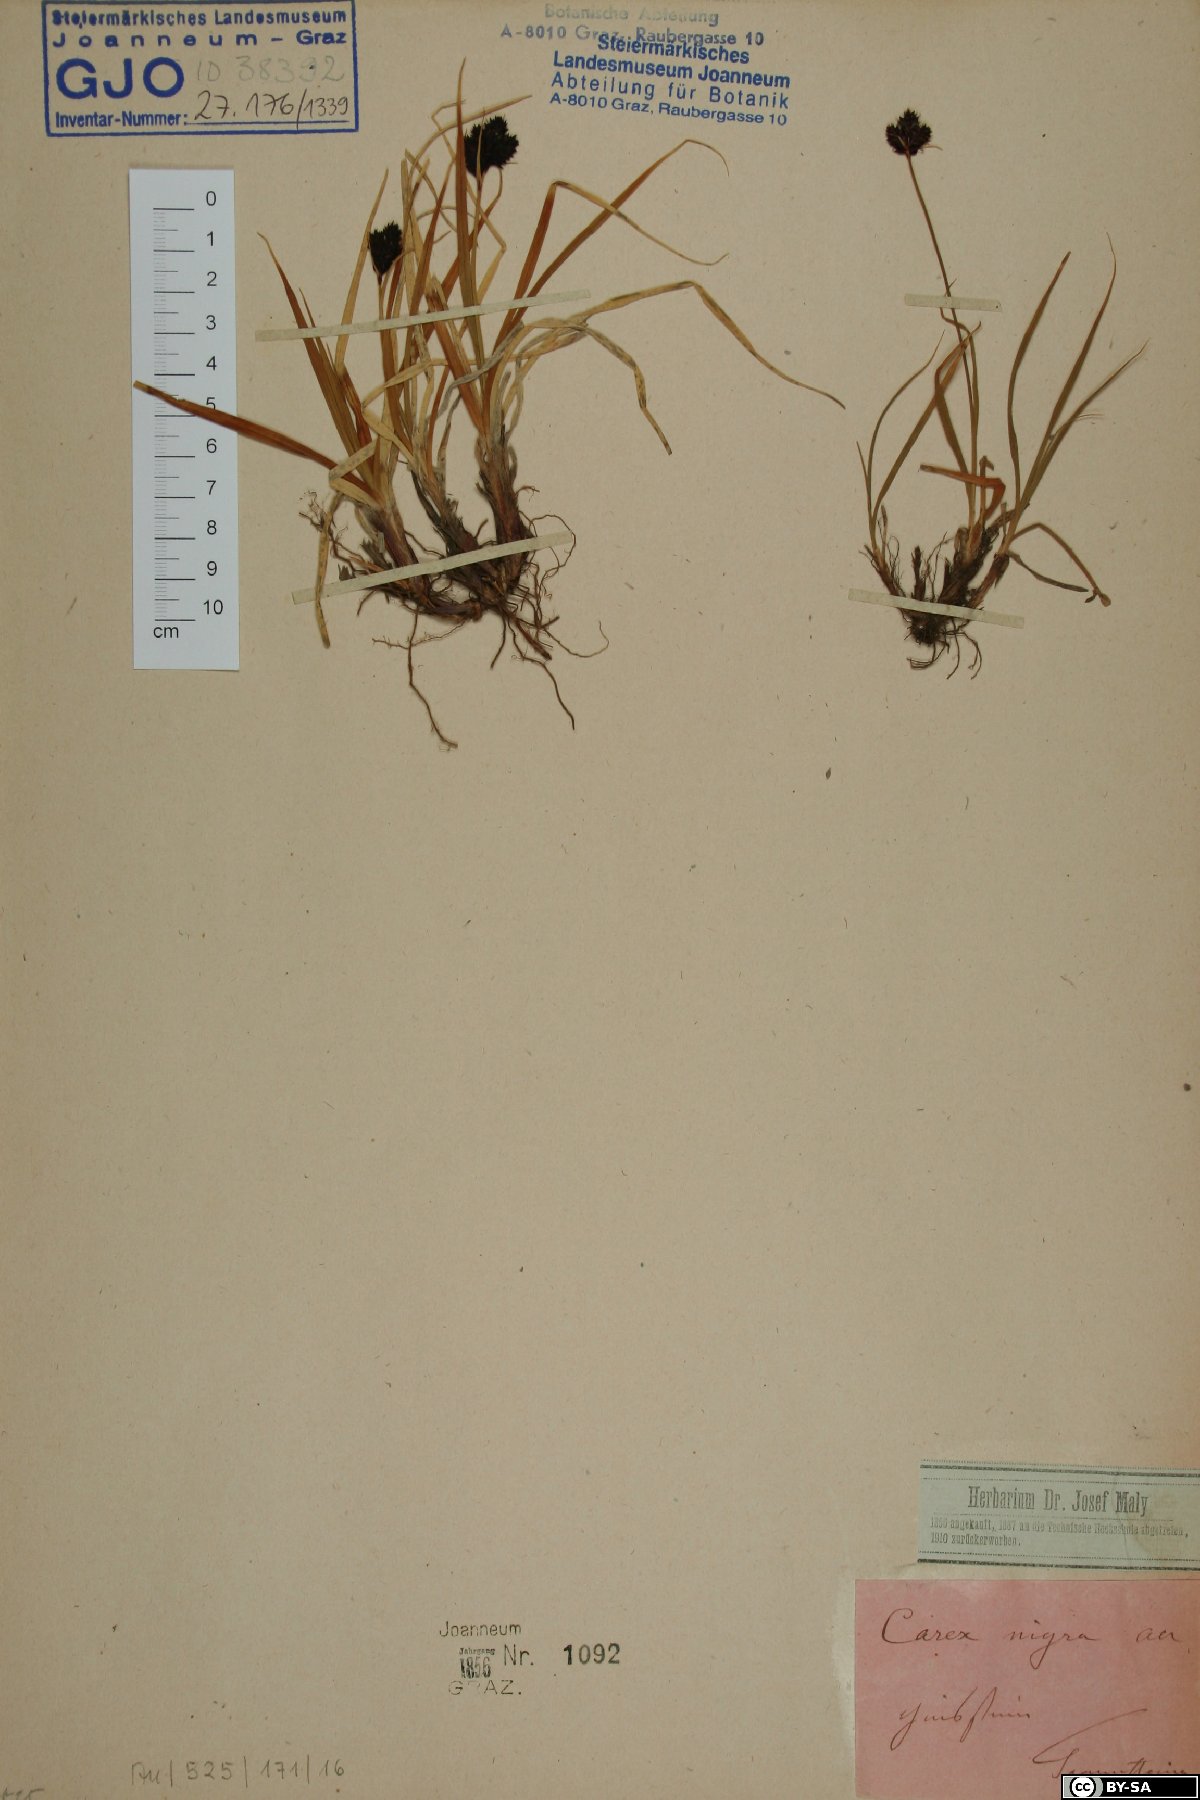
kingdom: Plantae
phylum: Tracheophyta
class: Liliopsida
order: Poales
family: Cyperaceae
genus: Carex
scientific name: Carex nigra
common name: Common sedge
